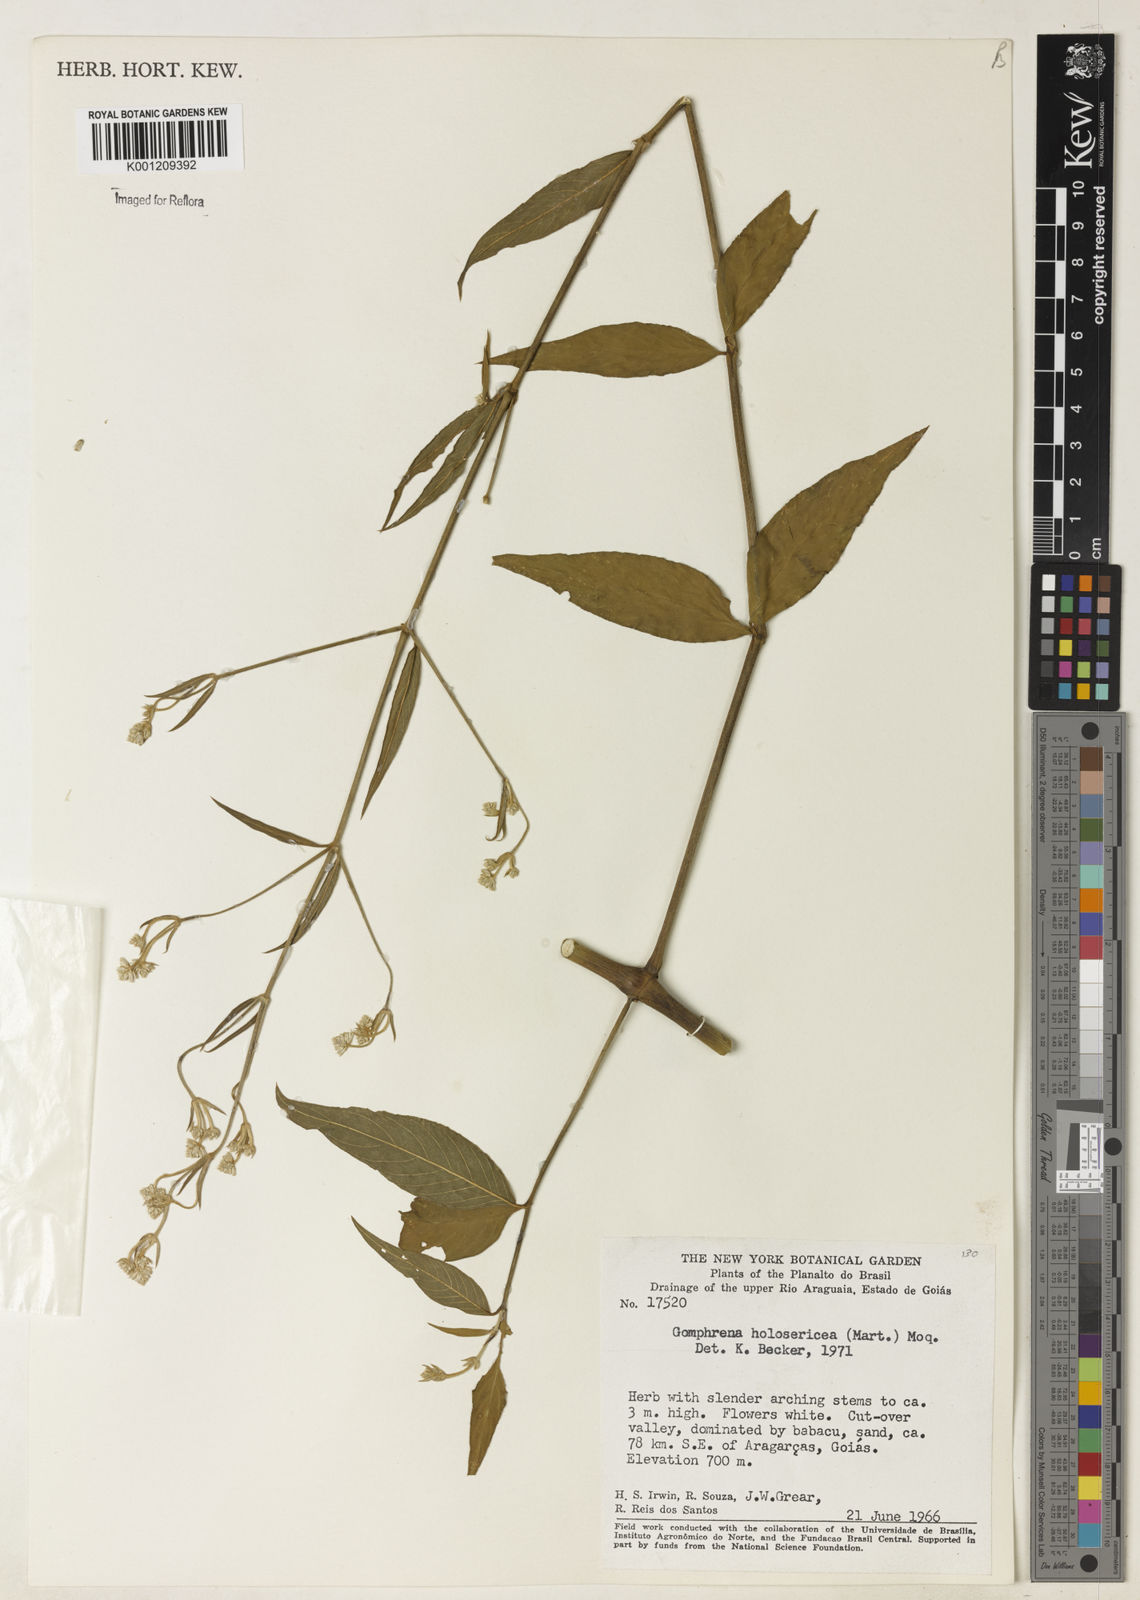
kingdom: Plantae
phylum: Tracheophyta
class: Magnoliopsida
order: Caryophyllales
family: Amaranthaceae
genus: Gomphrena
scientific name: Gomphrena vaga
